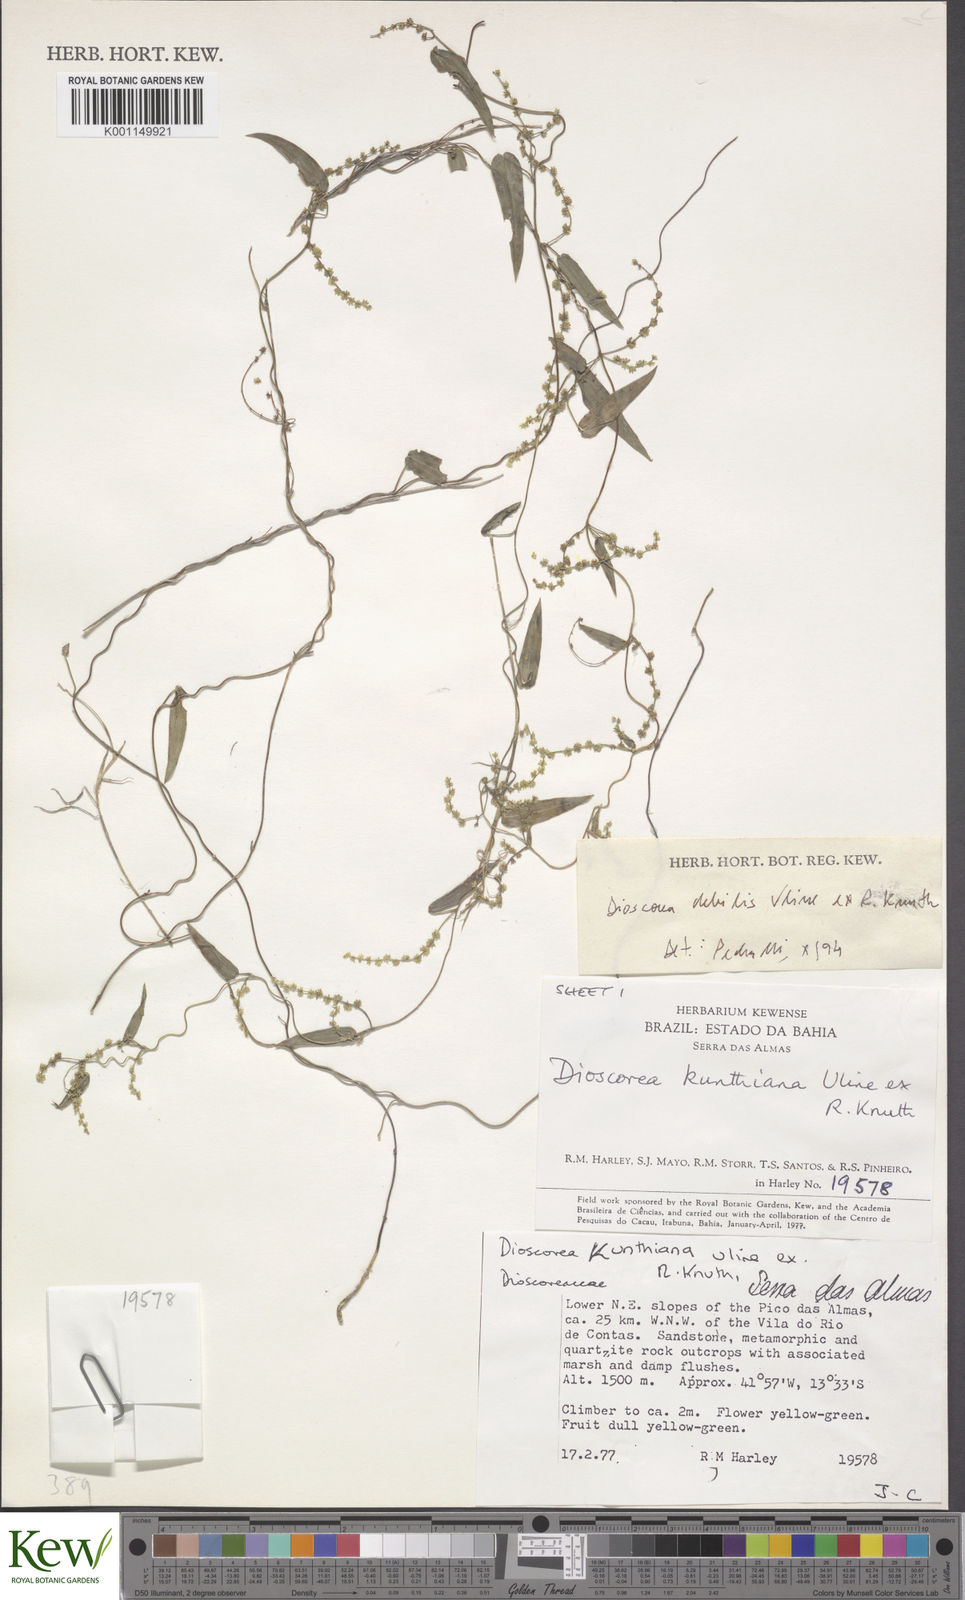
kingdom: Plantae
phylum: Tracheophyta
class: Liliopsida
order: Dioscoreales
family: Dioscoreaceae
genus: Dioscorea
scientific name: Dioscorea debilis
